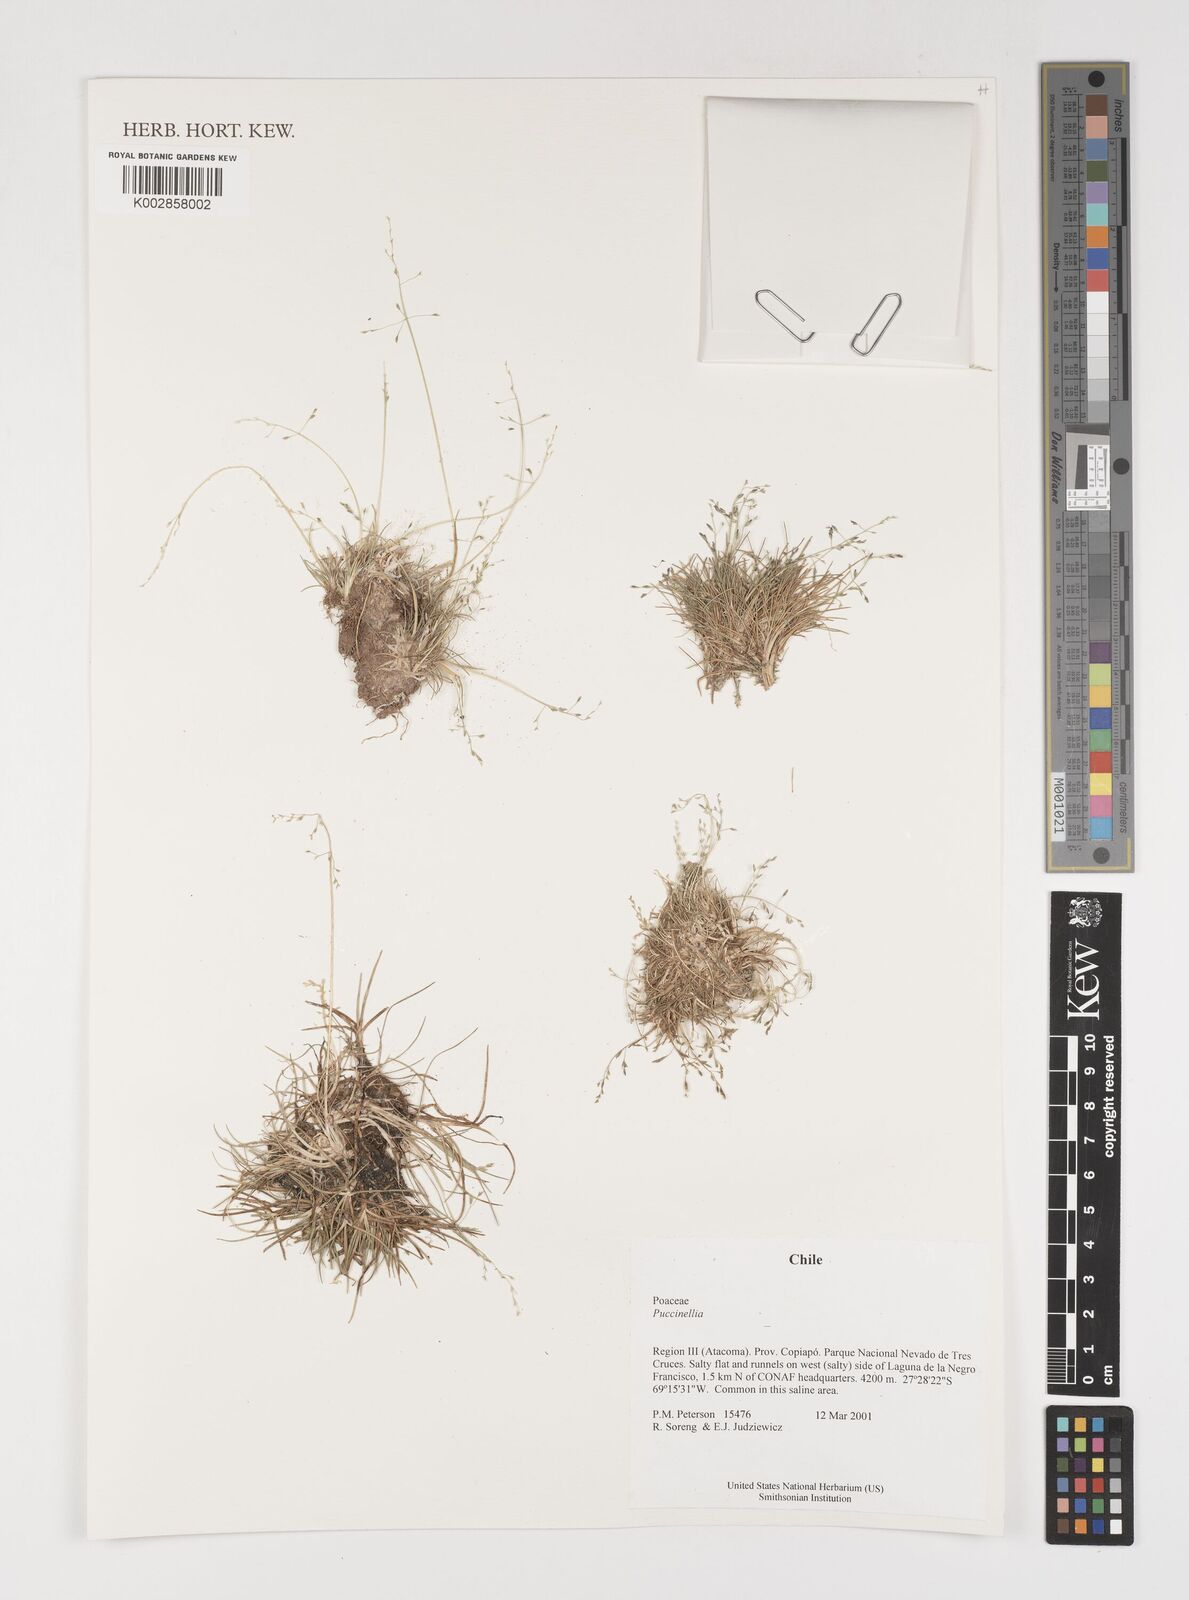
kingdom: Plantae
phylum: Tracheophyta
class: Liliopsida
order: Poales
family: Poaceae
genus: Puccinellia
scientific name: Puccinellia
